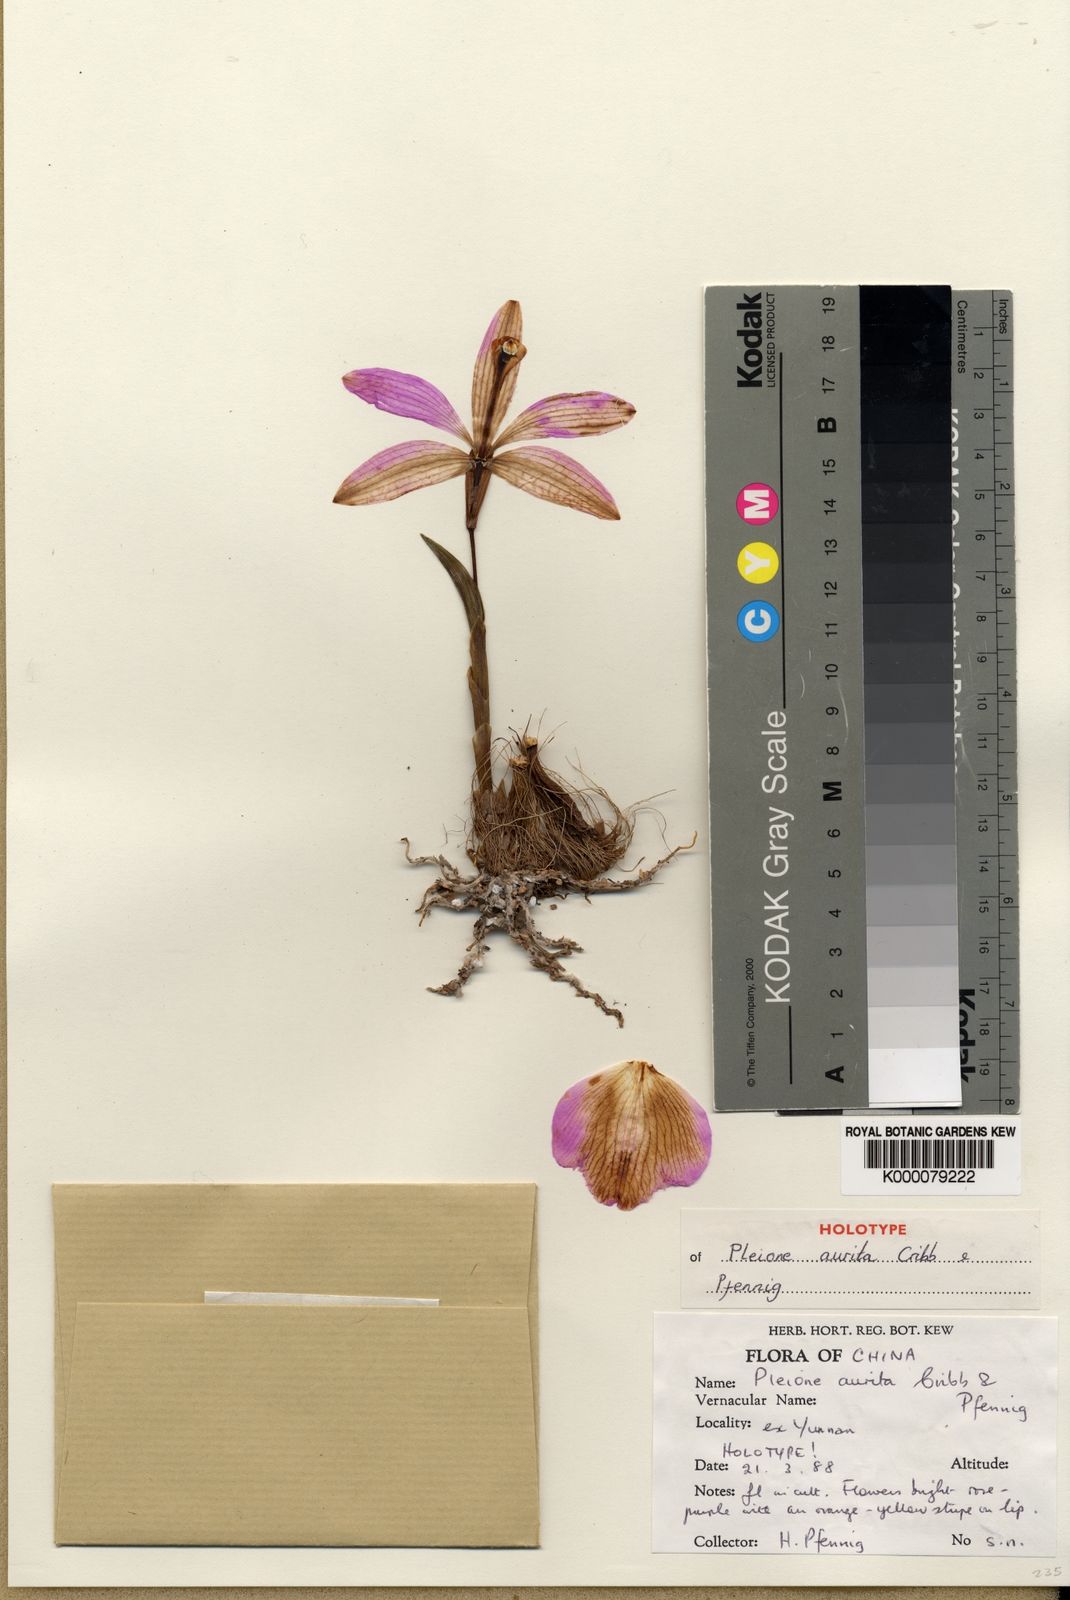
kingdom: Plantae
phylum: Tracheophyta
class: Liliopsida
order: Asparagales
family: Orchidaceae
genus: Pleione
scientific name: Pleione aurita
